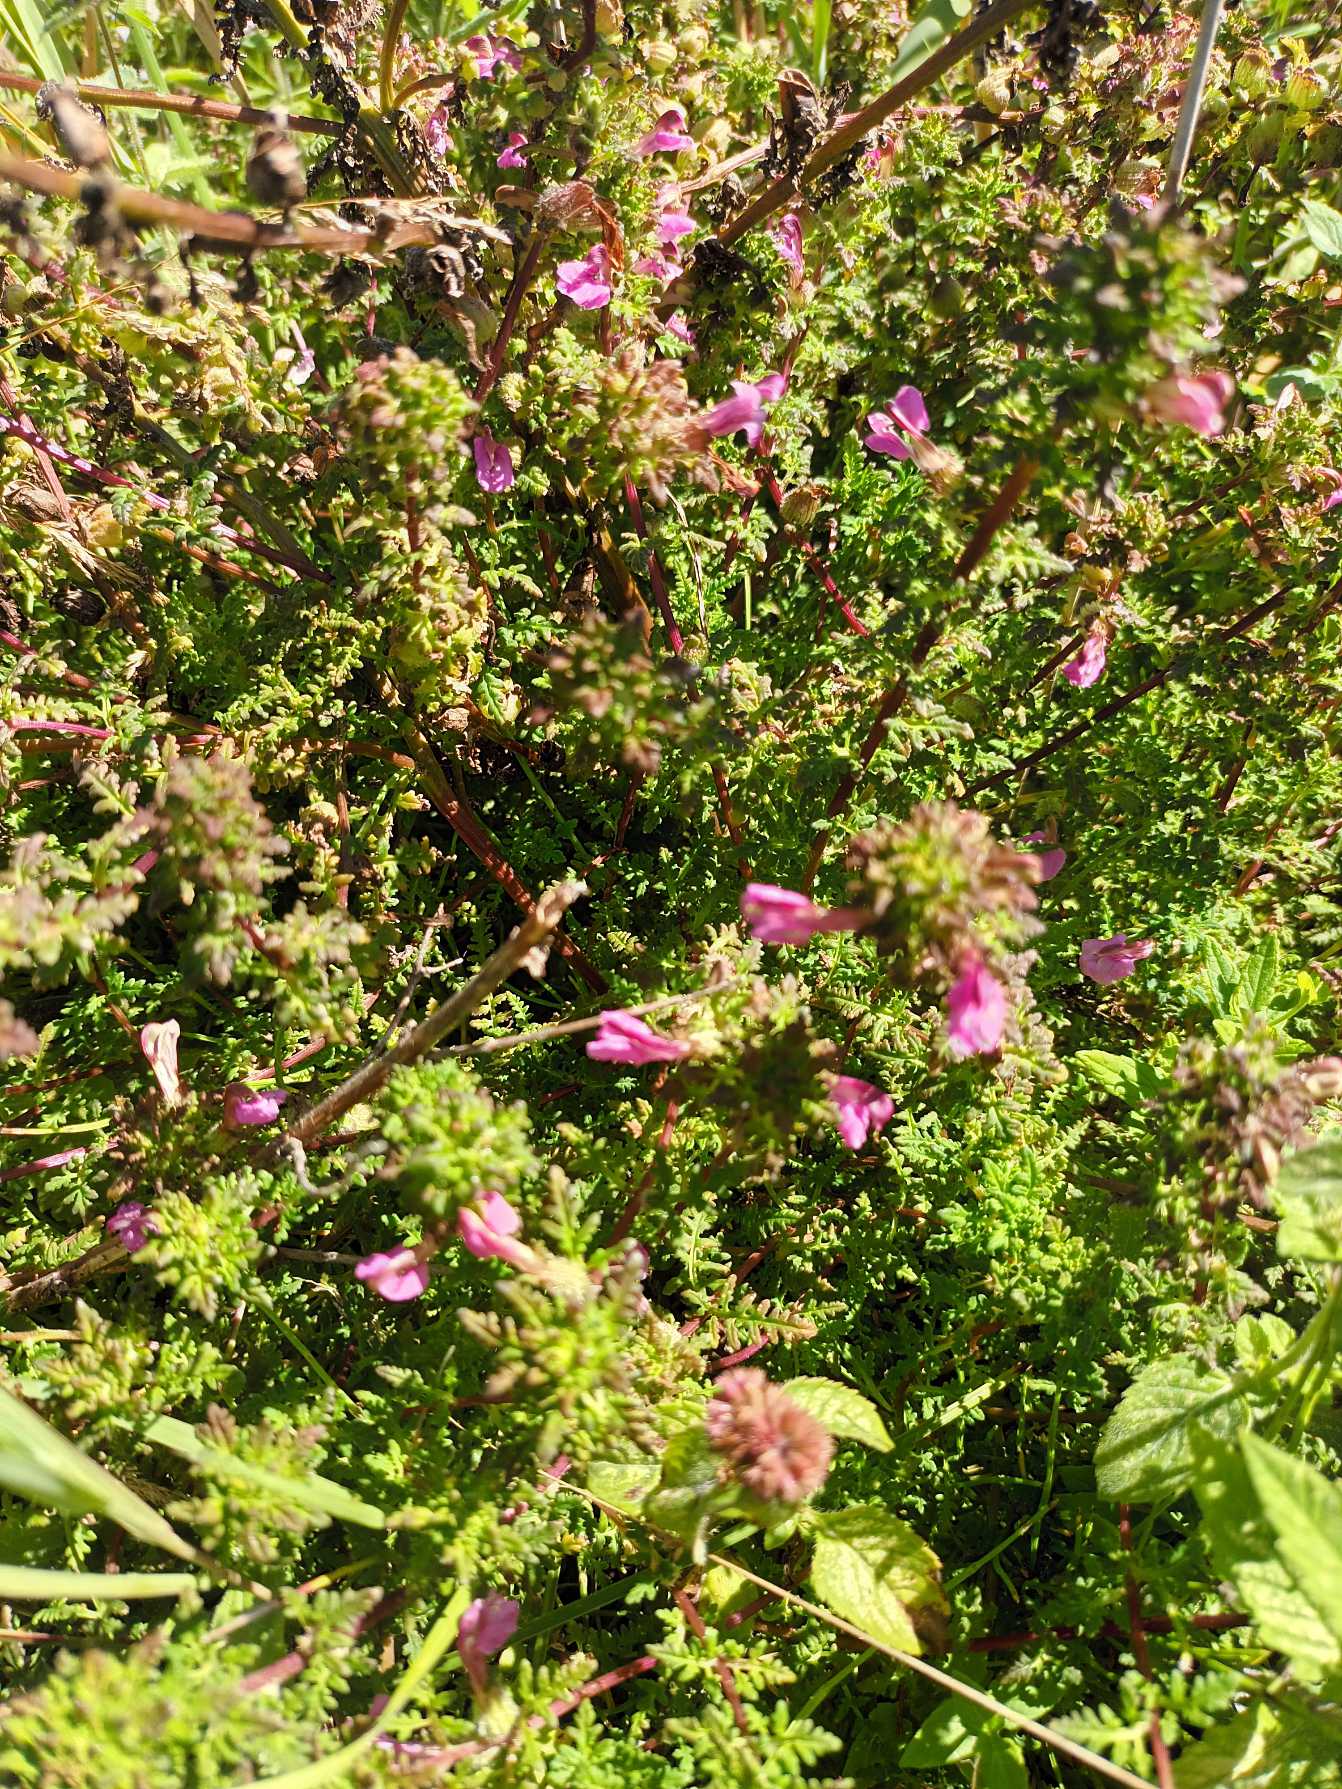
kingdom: Plantae
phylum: Tracheophyta
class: Magnoliopsida
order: Lamiales
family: Orobanchaceae
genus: Pedicularis
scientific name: Pedicularis palustris
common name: Eng-troldurt
